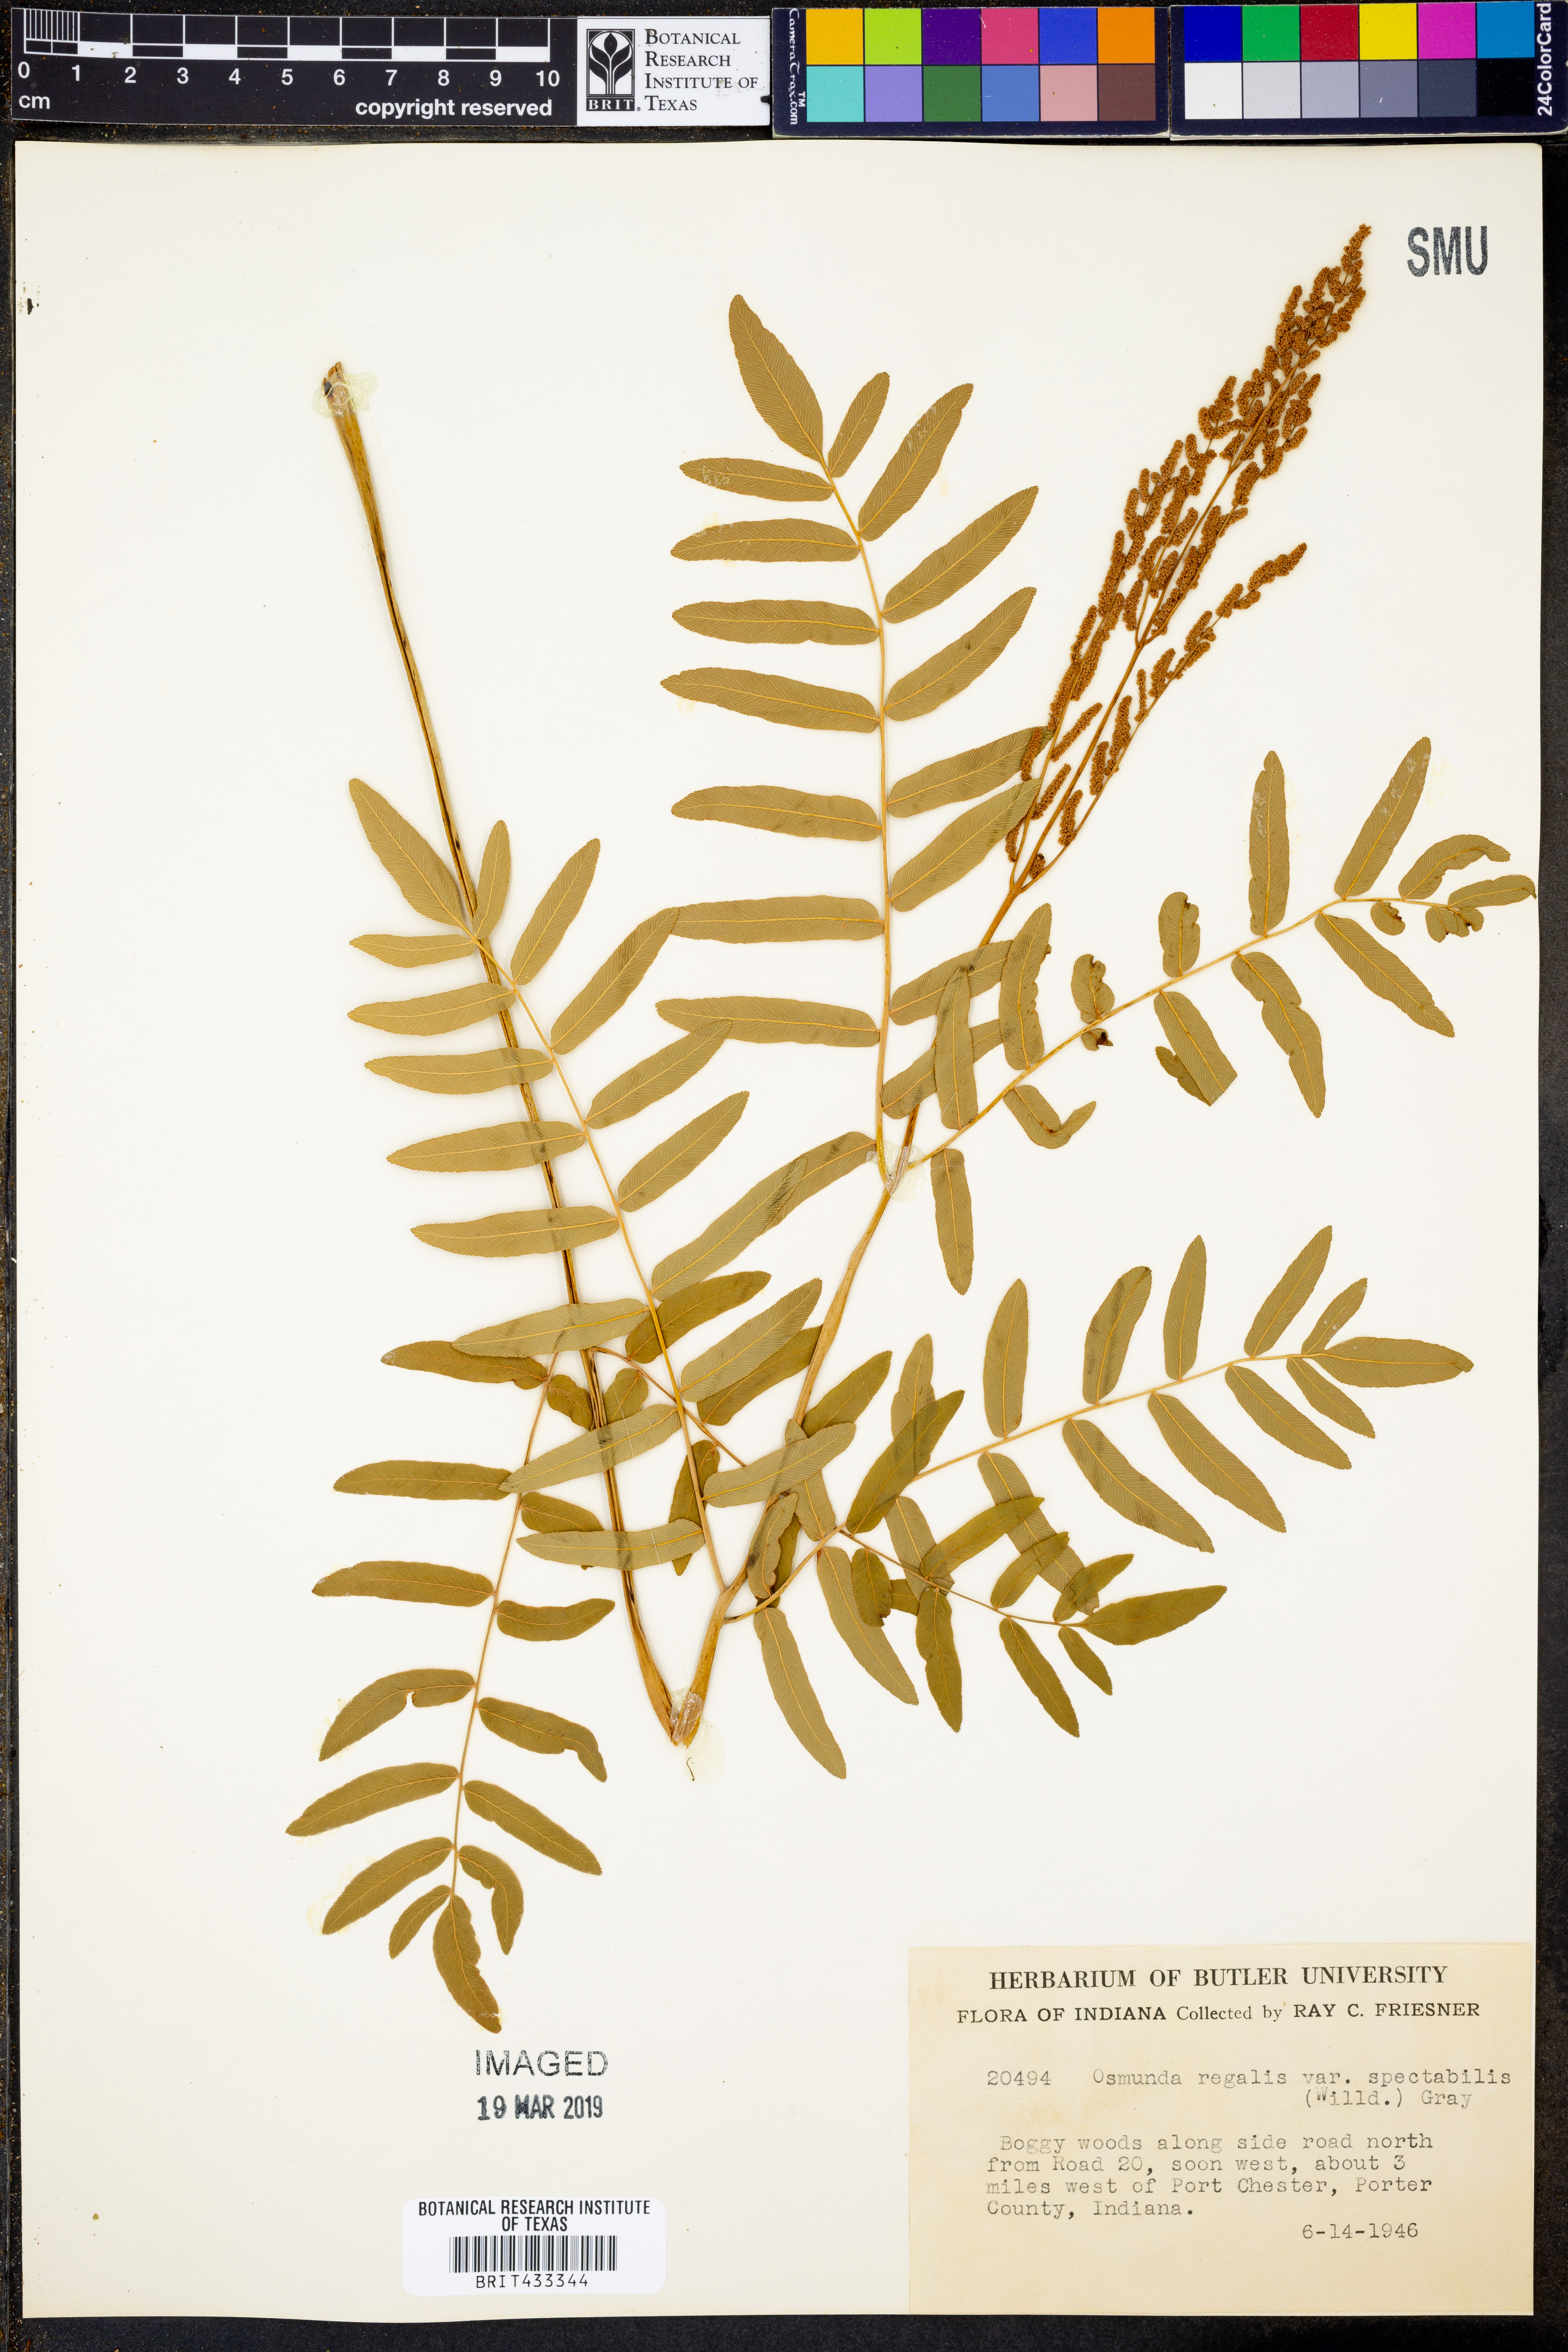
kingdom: Plantae
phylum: Tracheophyta
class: Polypodiopsida
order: Osmundales
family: Osmundaceae
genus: Osmunda
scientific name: Osmunda spectabilis
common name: American royal fern
